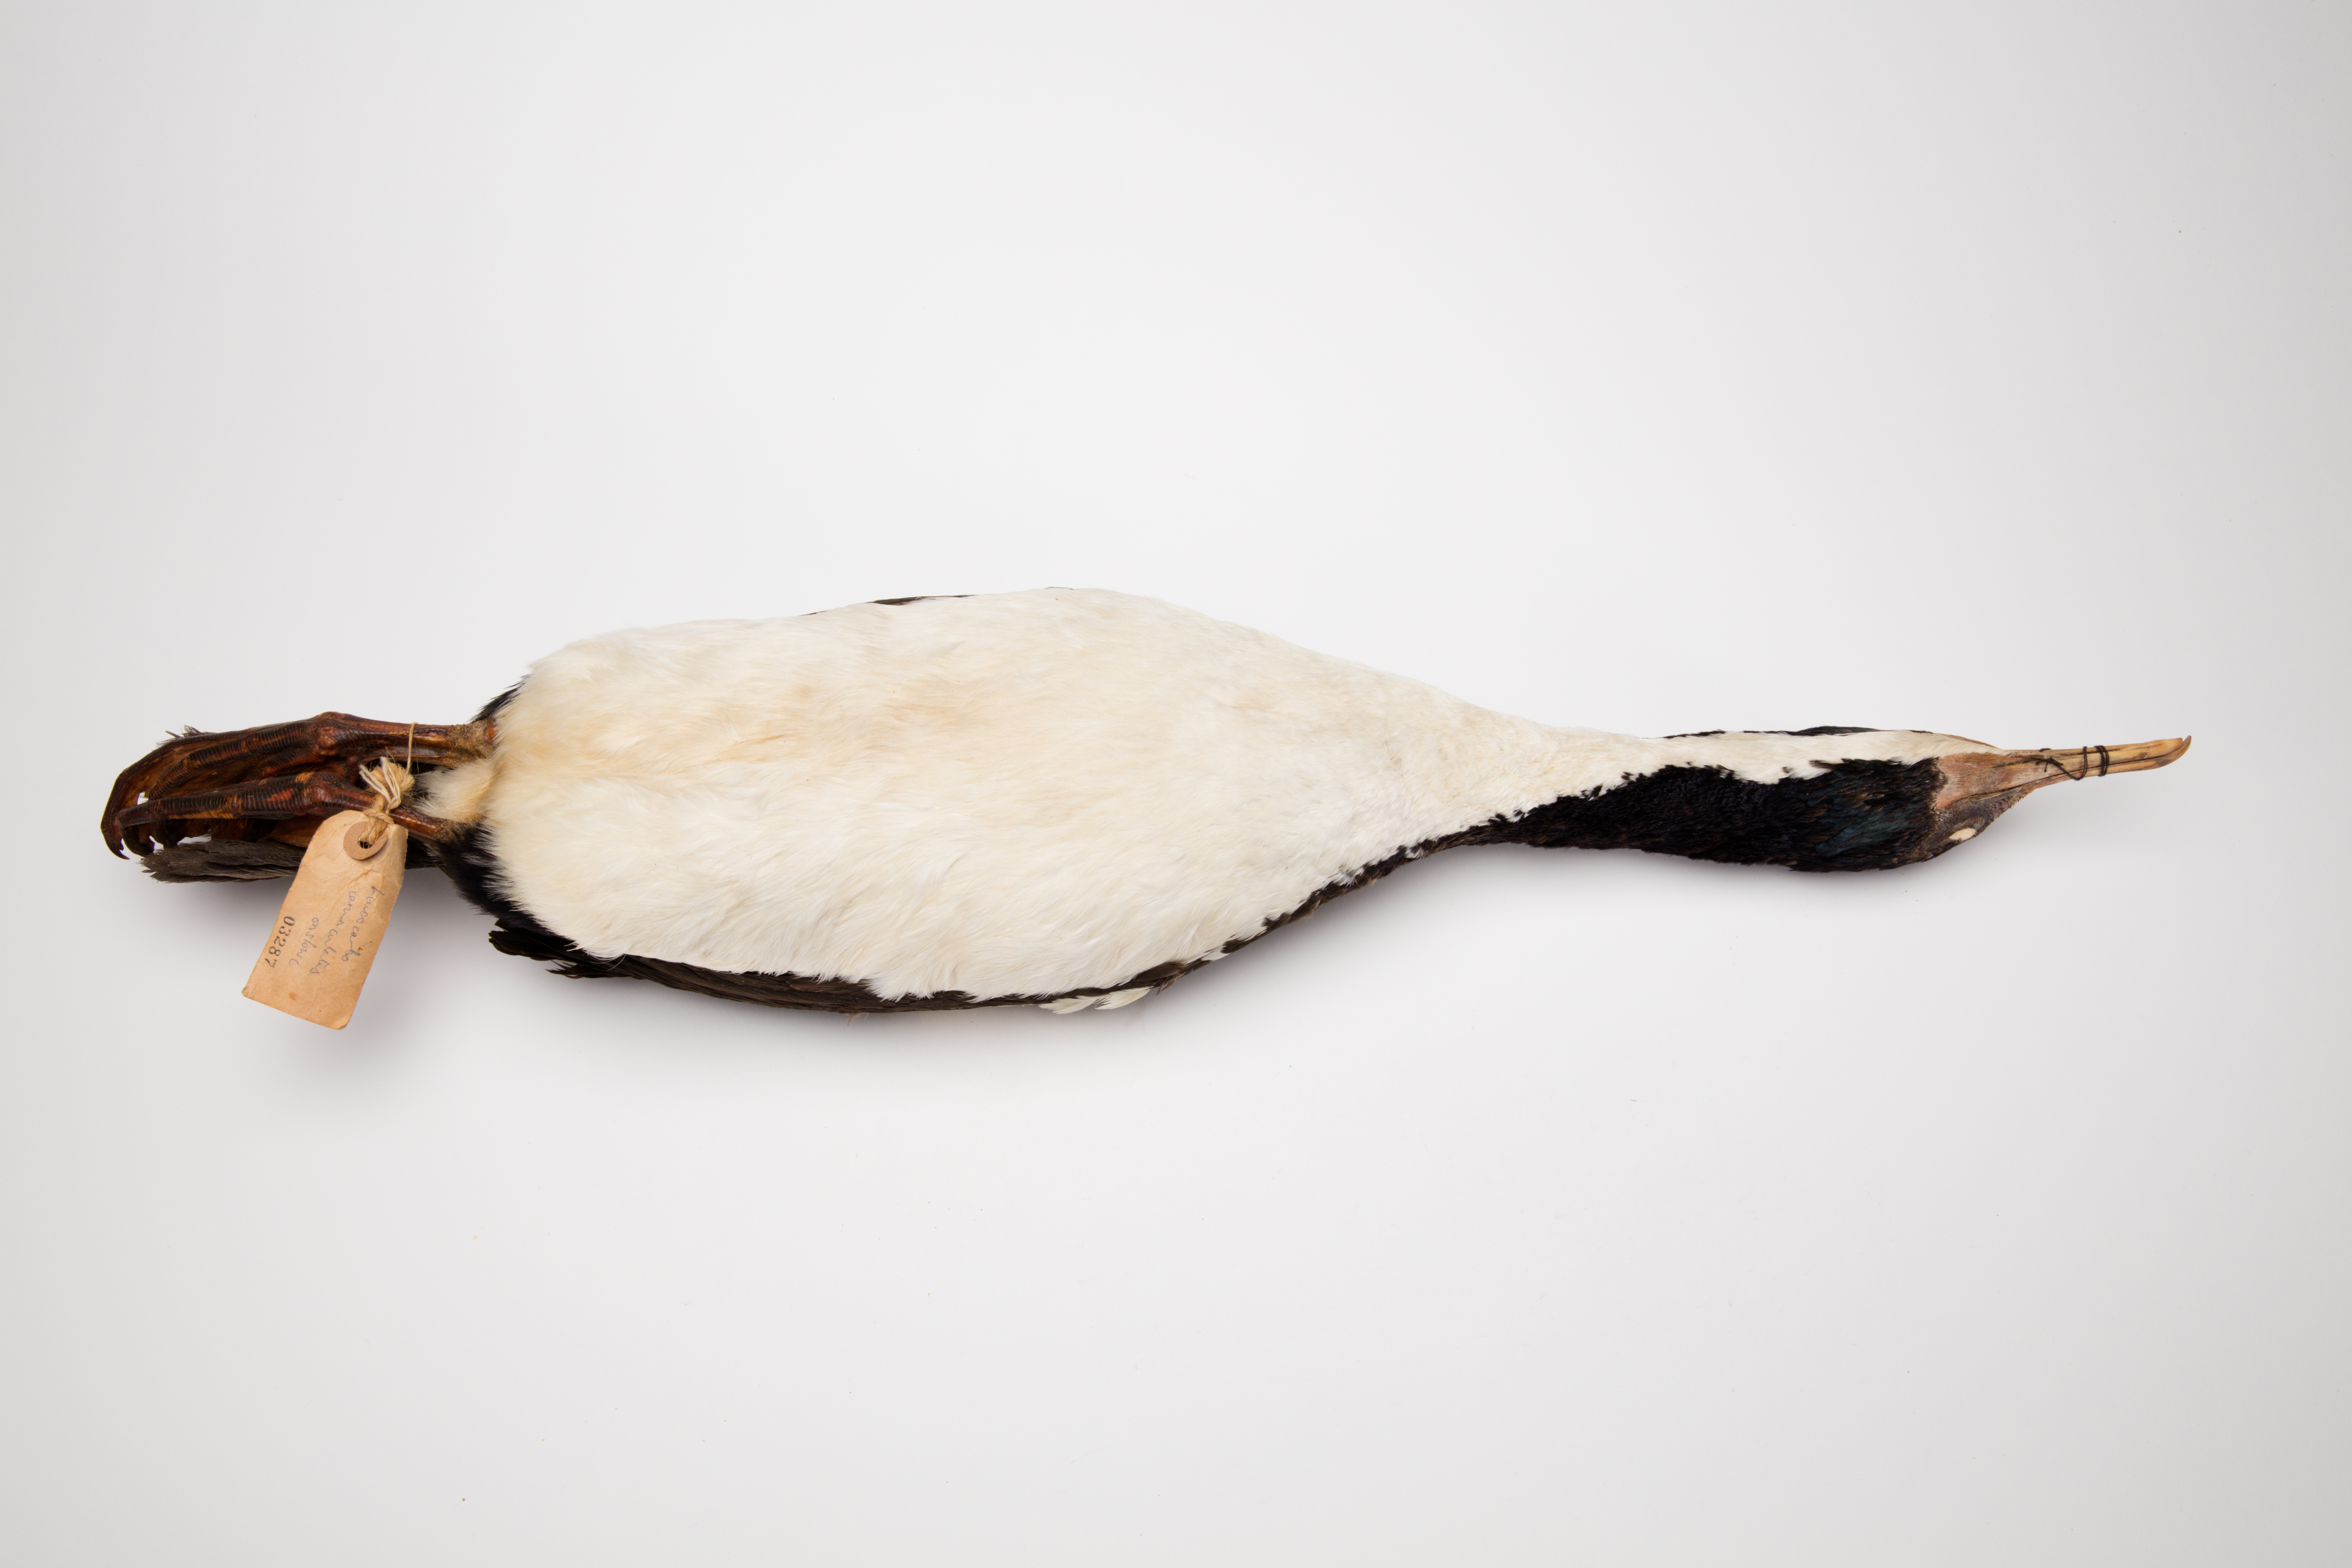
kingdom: Animalia
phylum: Chordata
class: Aves
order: Suliformes
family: Phalacrocoracidae
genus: Leucocarbo
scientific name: Leucocarbo onslowi
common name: Chatham shag
